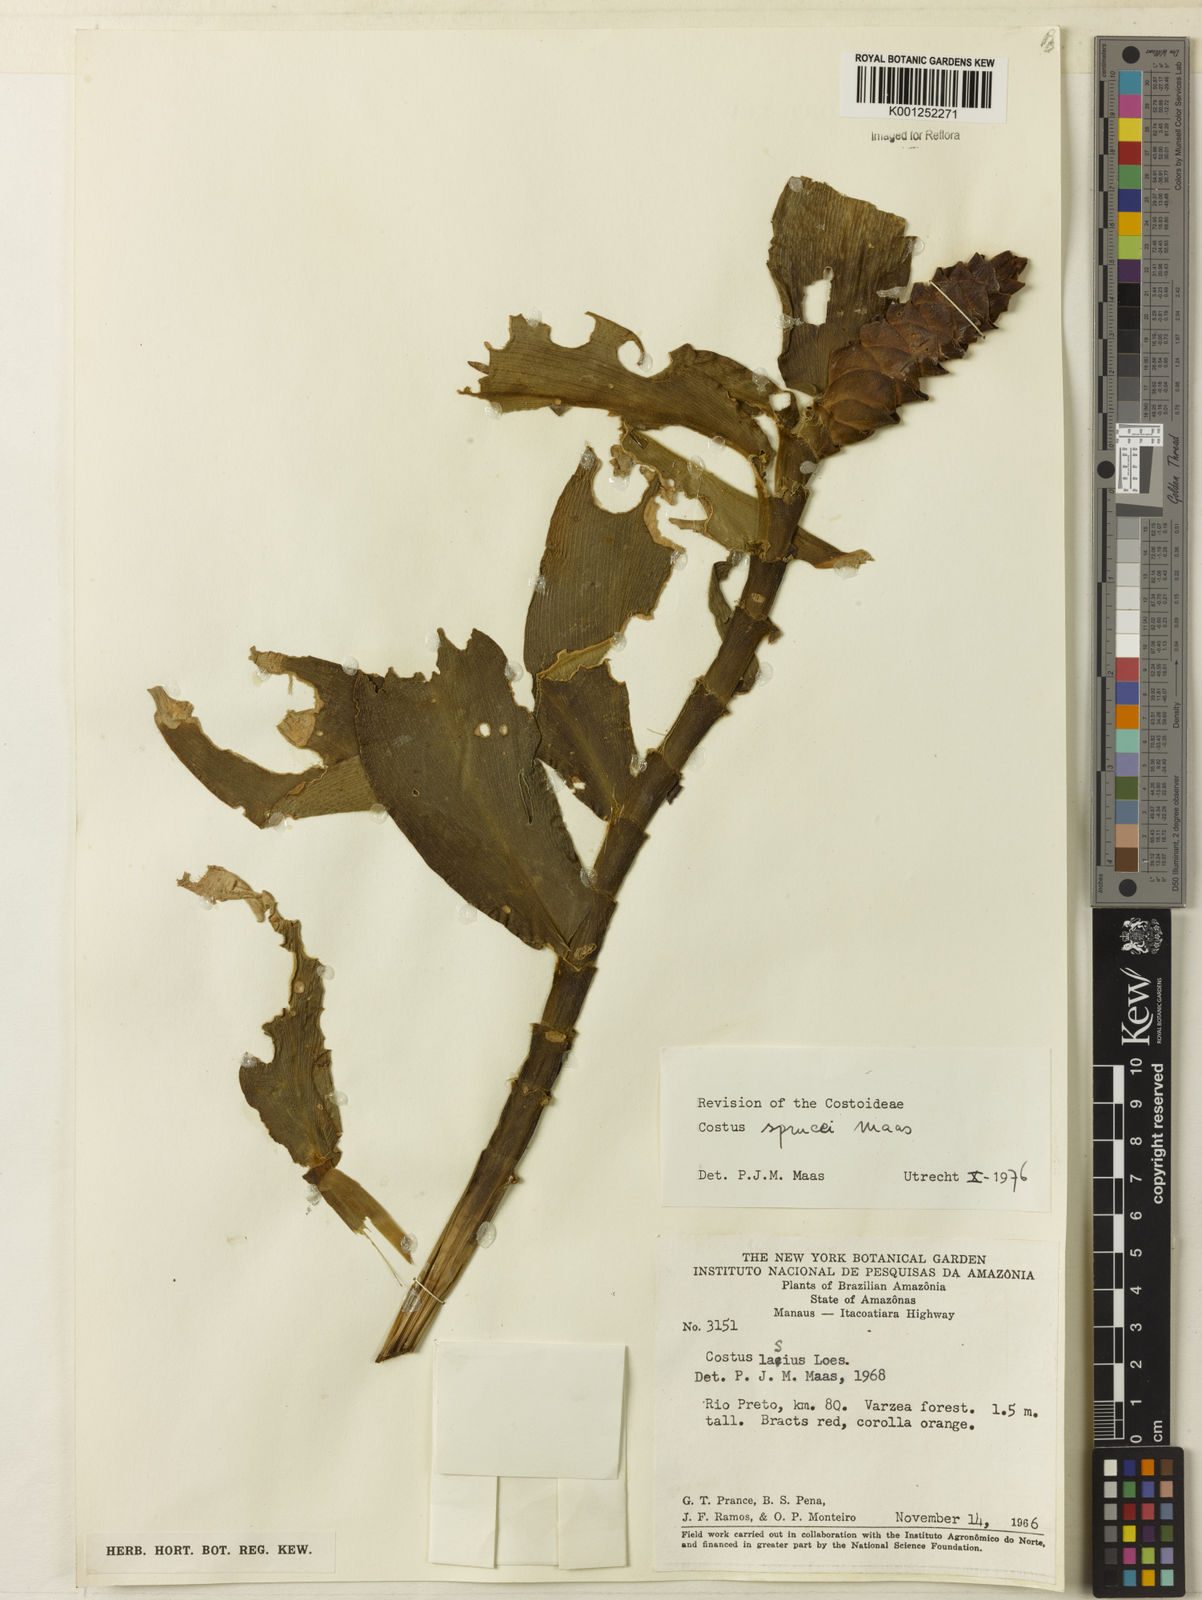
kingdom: Plantae
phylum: Tracheophyta
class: Liliopsida
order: Zingiberales
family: Costaceae
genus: Costus
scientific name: Costus sprucei
